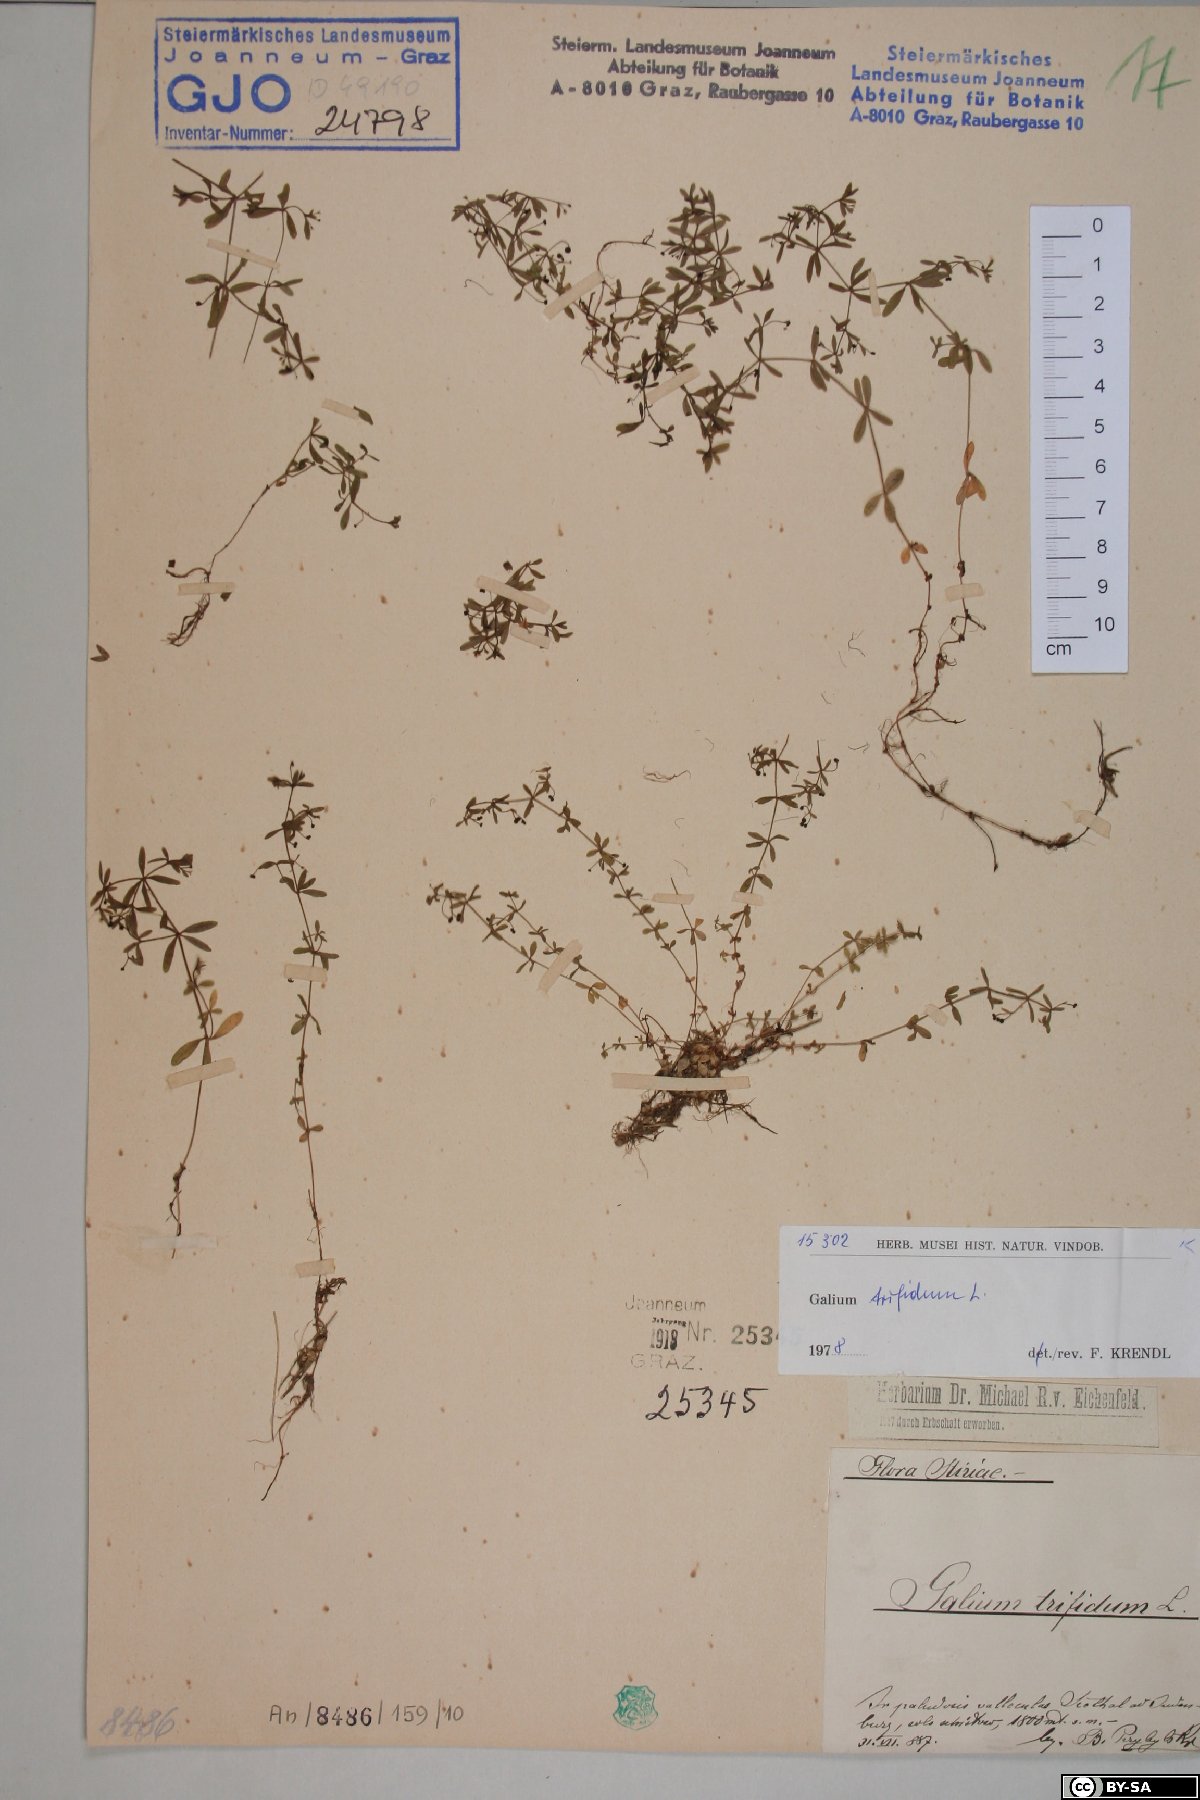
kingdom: Plantae
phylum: Tracheophyta
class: Magnoliopsida
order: Gentianales
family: Rubiaceae
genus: Galium
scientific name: Galium trifidum
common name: Small bedstraw
